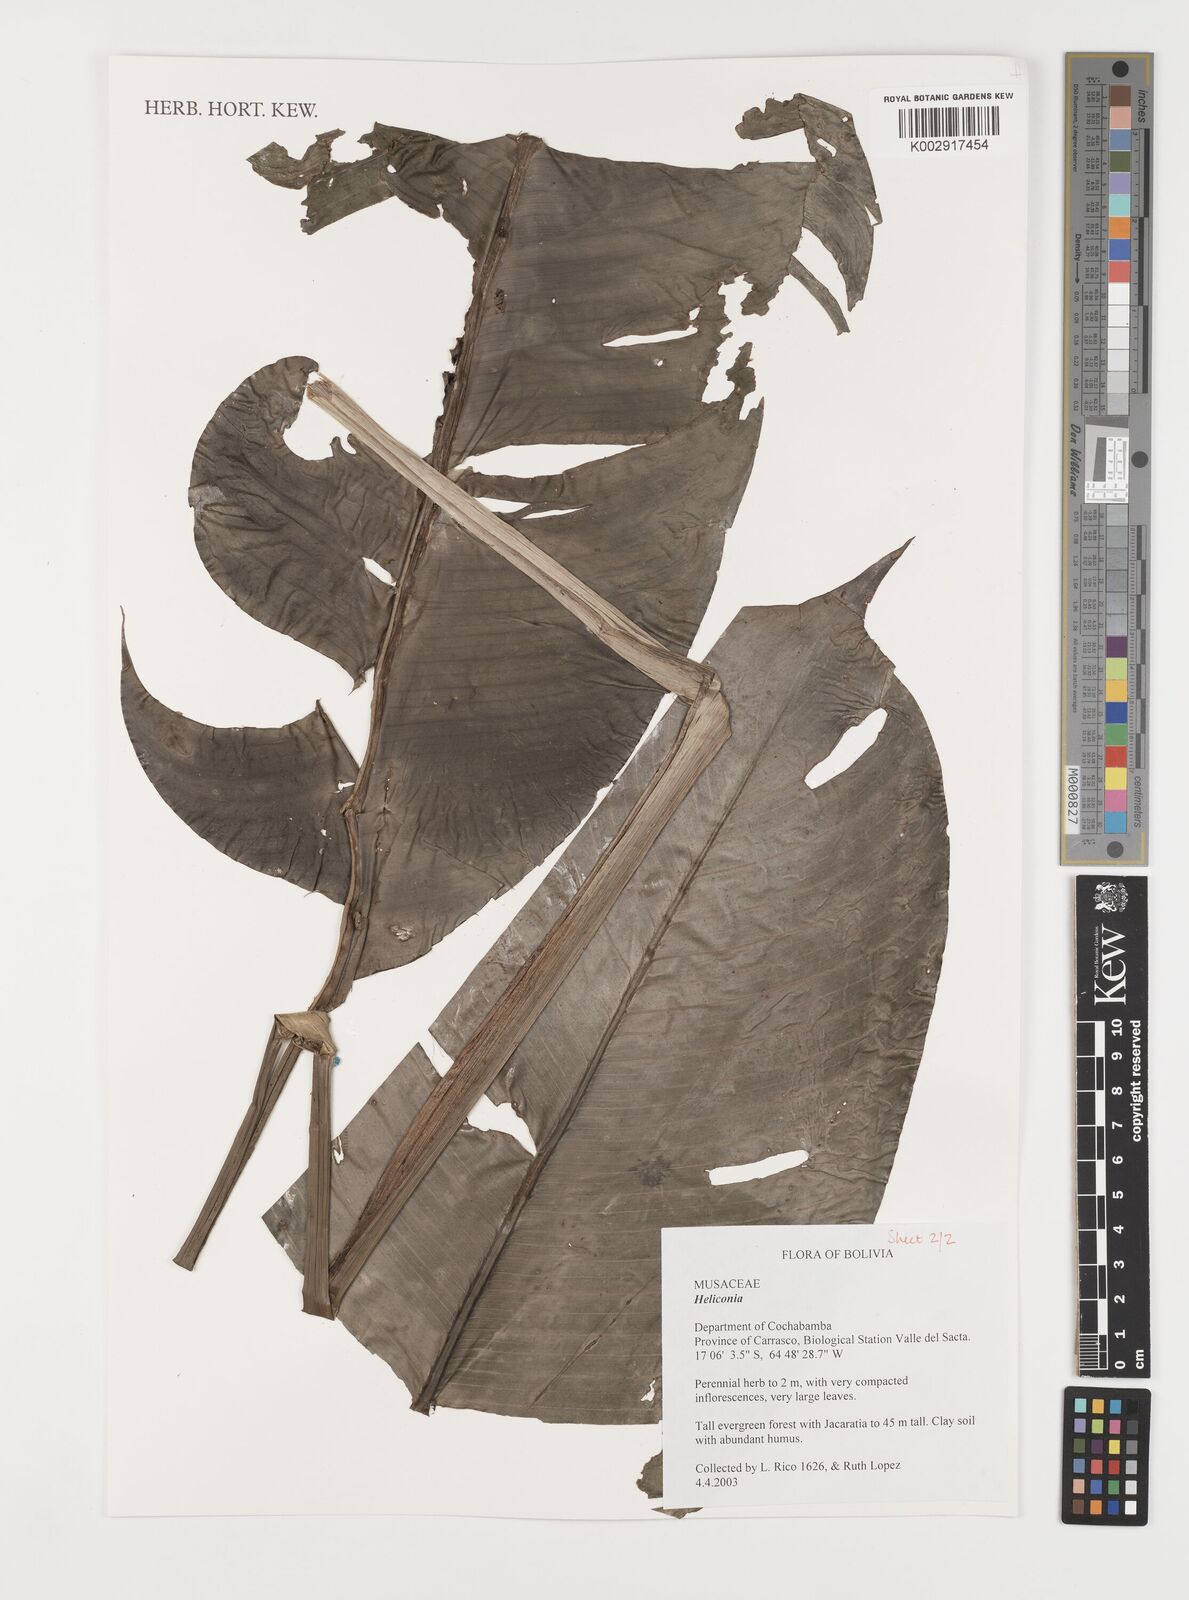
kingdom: Plantae
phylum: Tracheophyta
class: Liliopsida
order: Zingiberales
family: Heliconiaceae
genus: Heliconia
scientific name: Heliconia episcopalis
